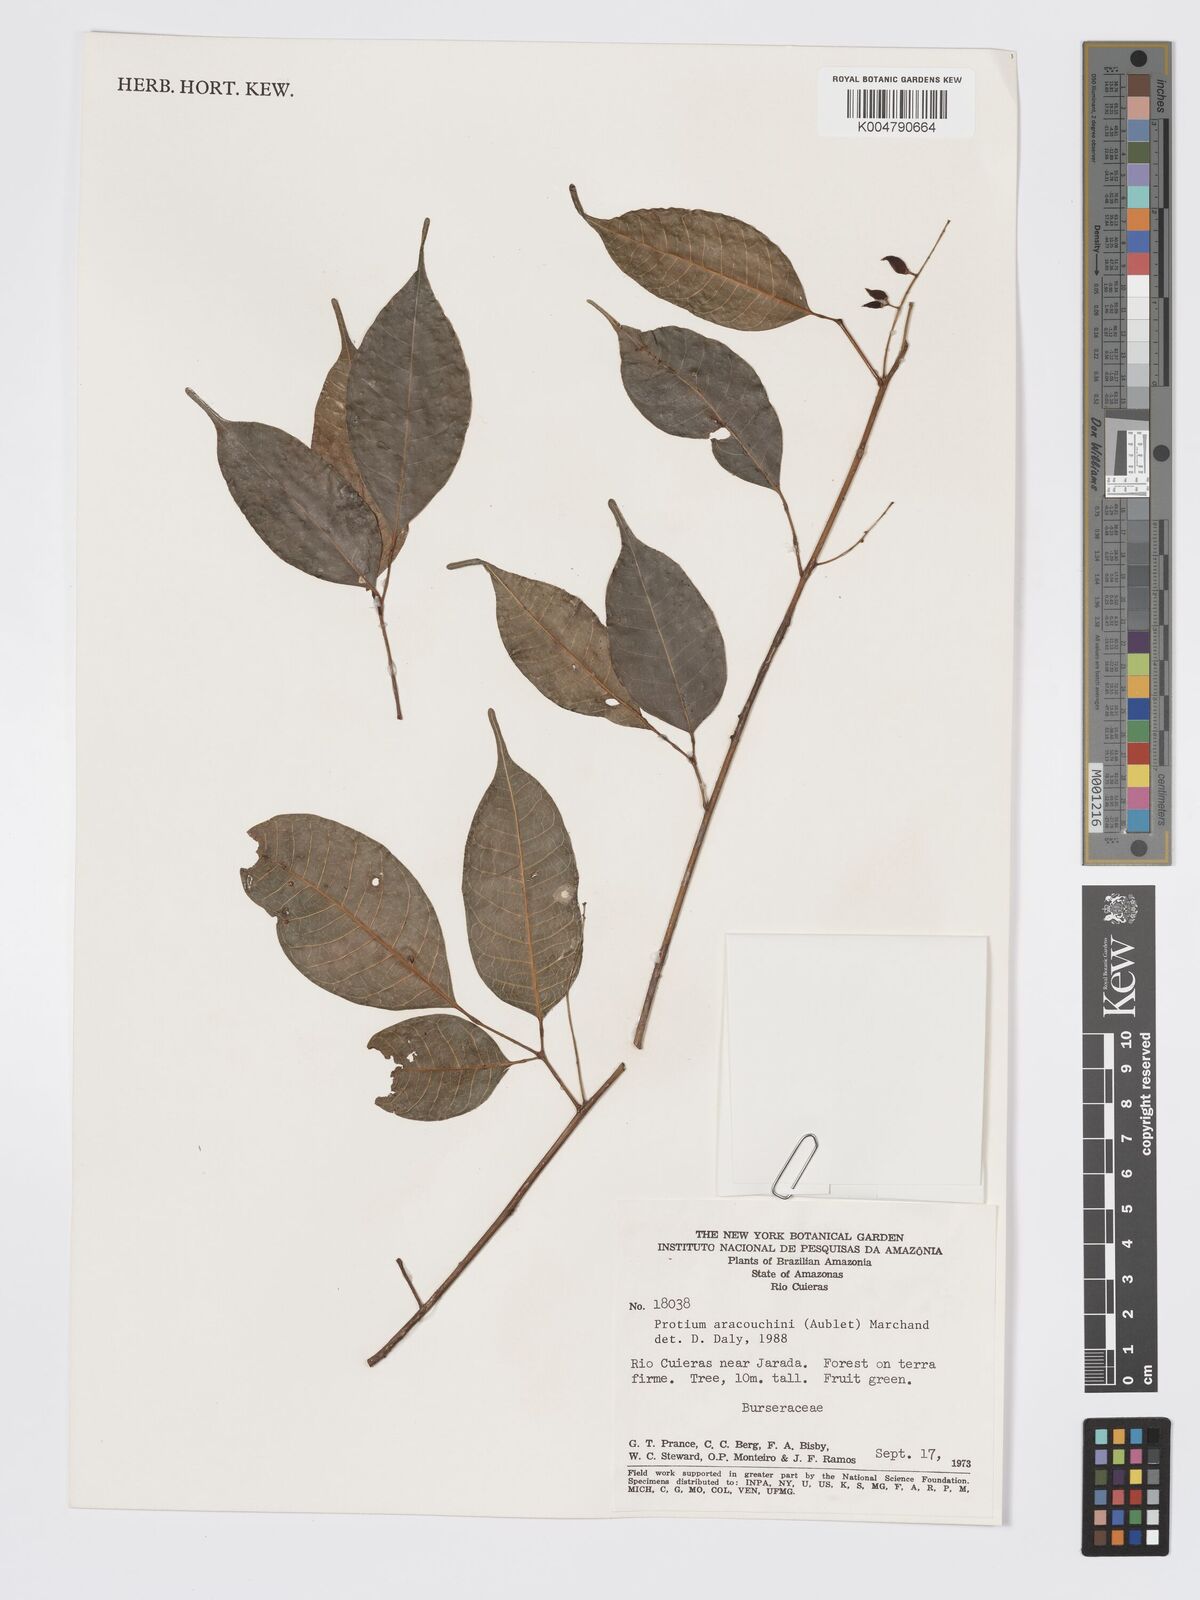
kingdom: Plantae
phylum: Tracheophyta
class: Magnoliopsida
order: Sapindales
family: Burseraceae
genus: Protium
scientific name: Protium aracouchini
